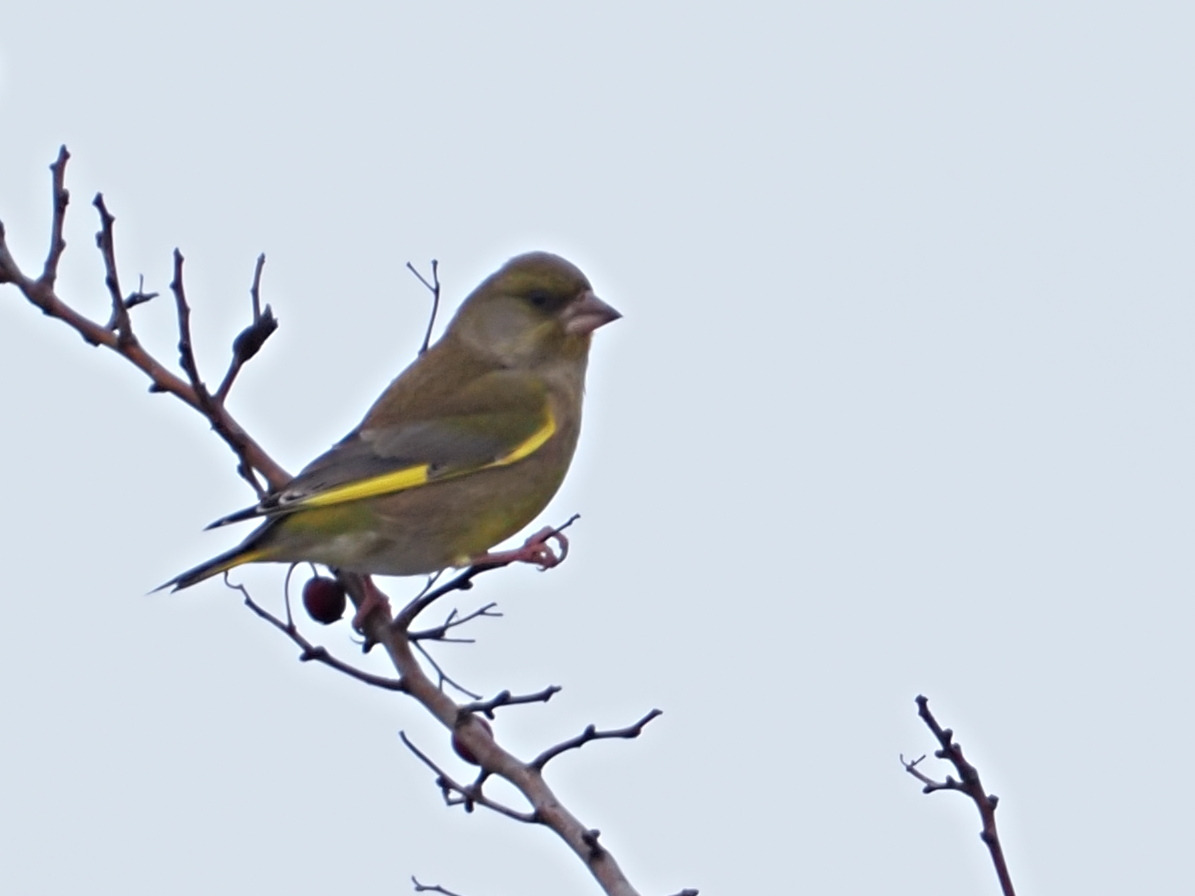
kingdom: Plantae
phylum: Tracheophyta
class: Liliopsida
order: Poales
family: Poaceae
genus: Chloris
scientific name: Chloris chloris
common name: Grønirisk
